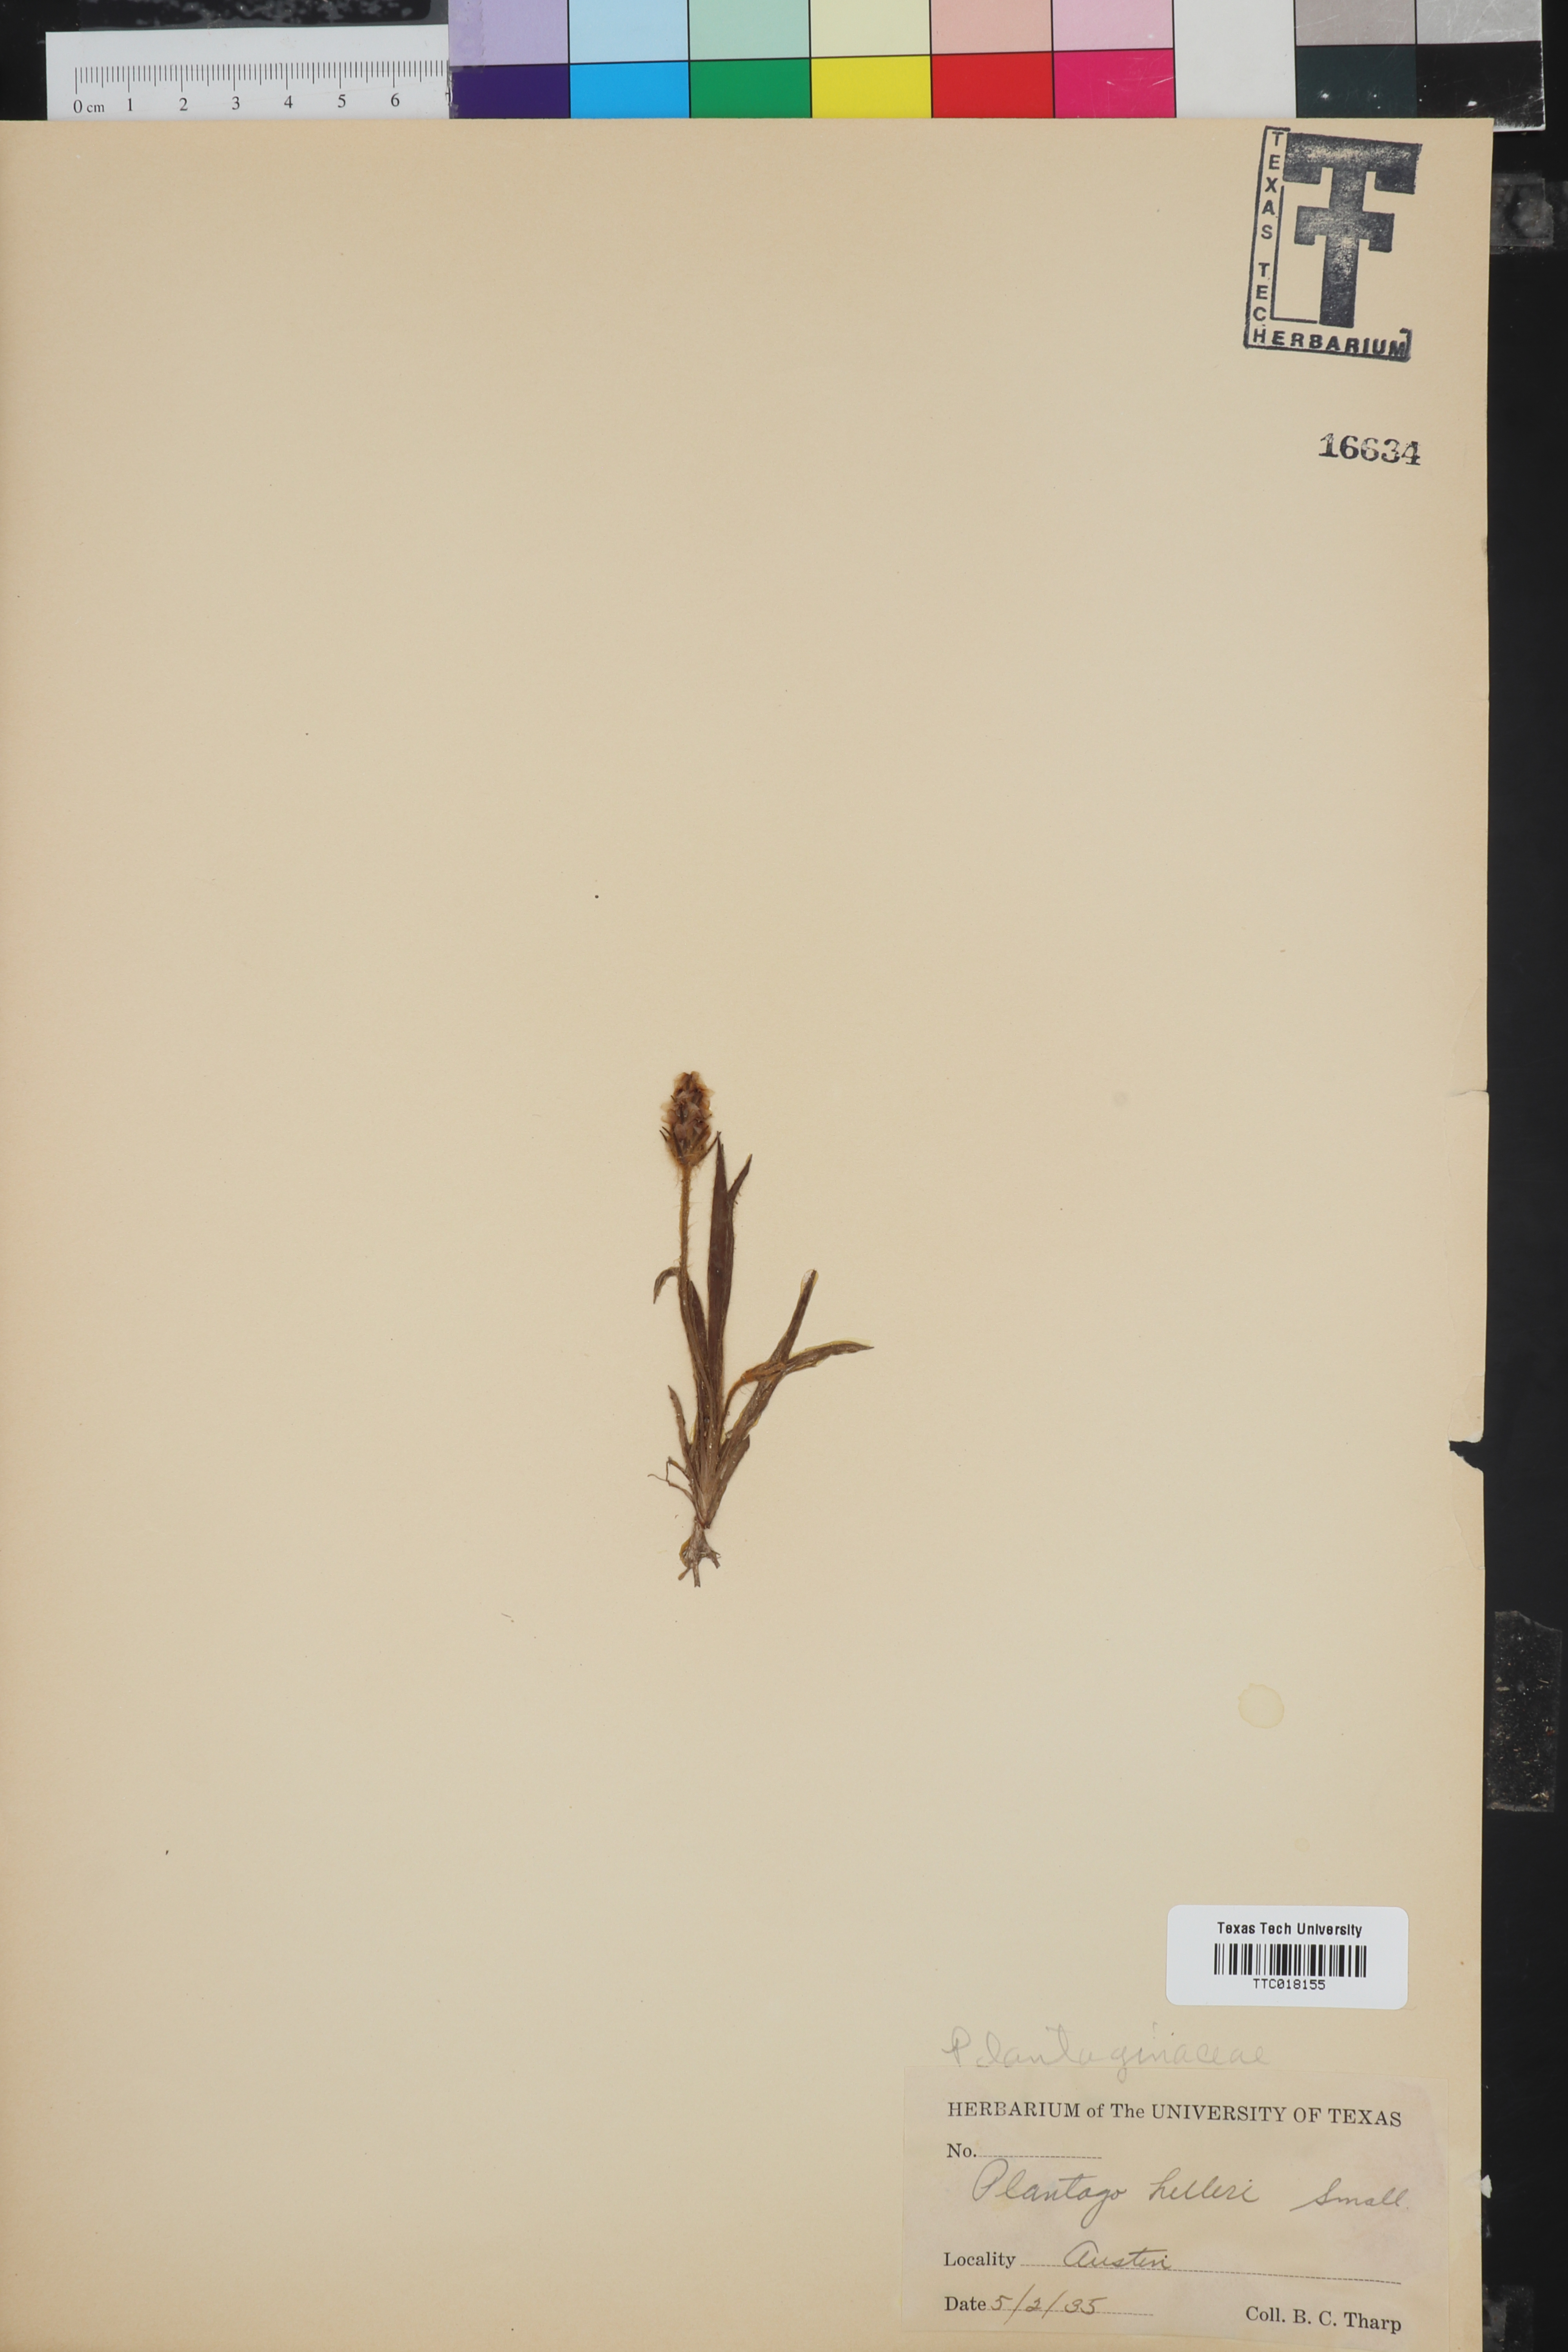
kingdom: Plantae
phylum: Tracheophyta
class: Magnoliopsida
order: Lamiales
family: Plantaginaceae
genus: Plantago
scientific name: Plantago helleri
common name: Heller's plantain
